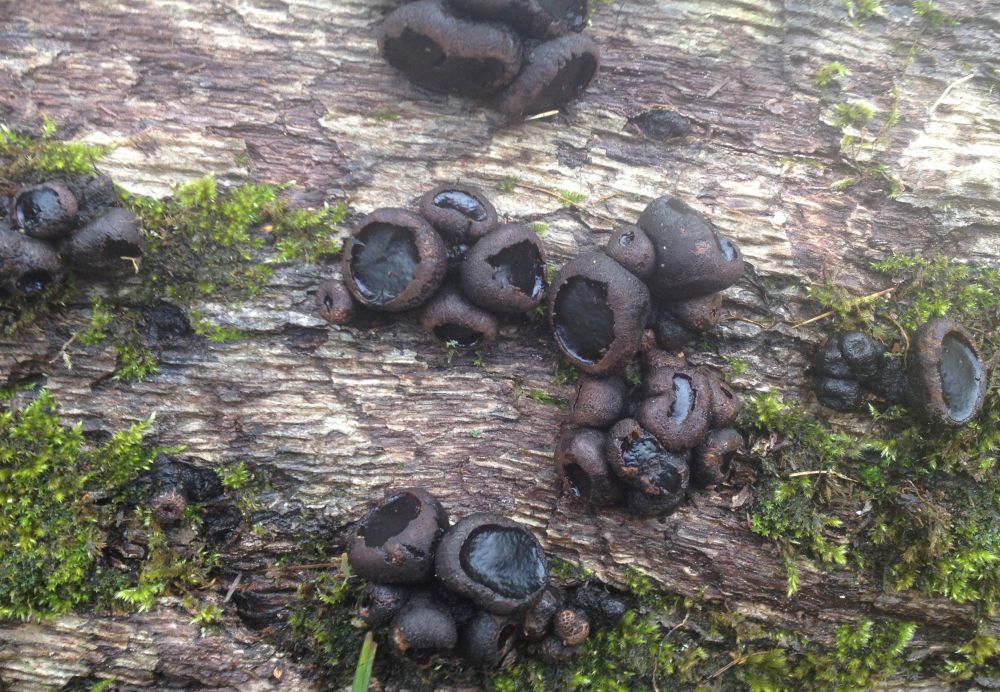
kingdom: Fungi
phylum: Ascomycota
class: Leotiomycetes
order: Phacidiales
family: Phacidiaceae
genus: Bulgaria
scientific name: Bulgaria inquinans
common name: afsmittende topsvamp
